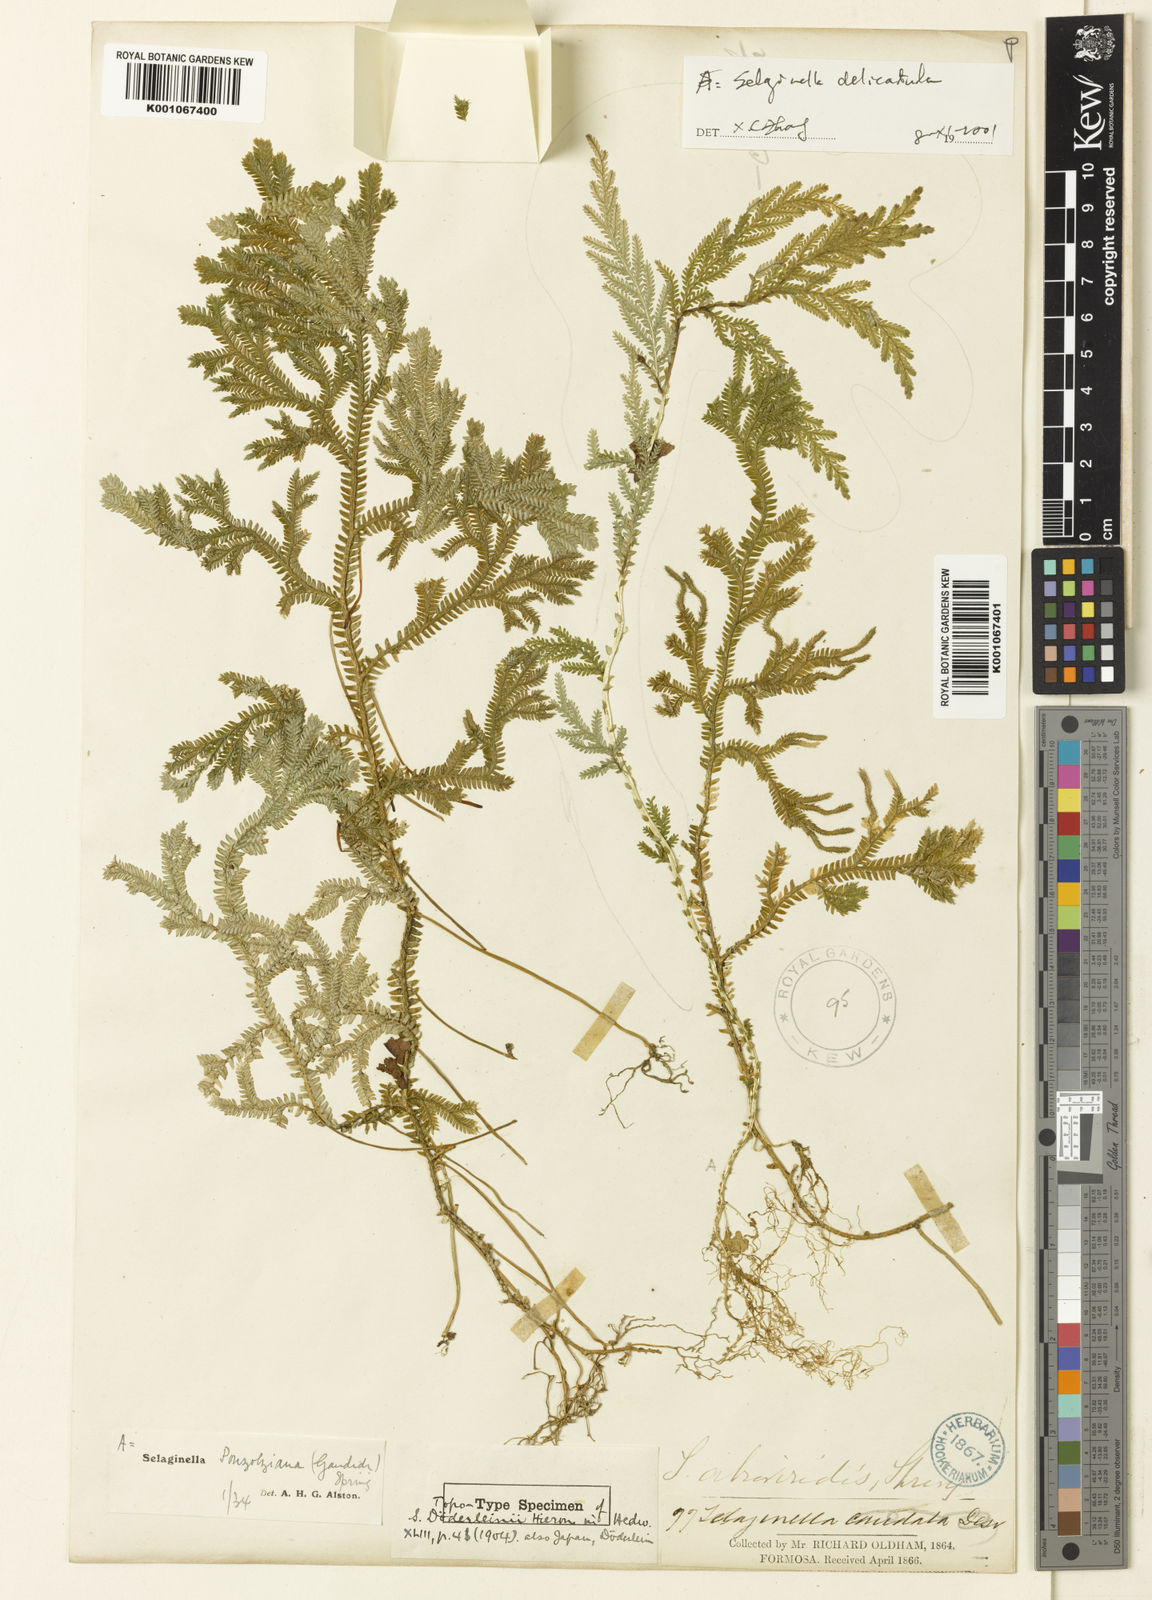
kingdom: Plantae
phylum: Tracheophyta
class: Lycopodiopsida
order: Selaginellales
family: Selaginellaceae
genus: Selaginella
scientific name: Selaginella doederleinii
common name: Greater selaginella
